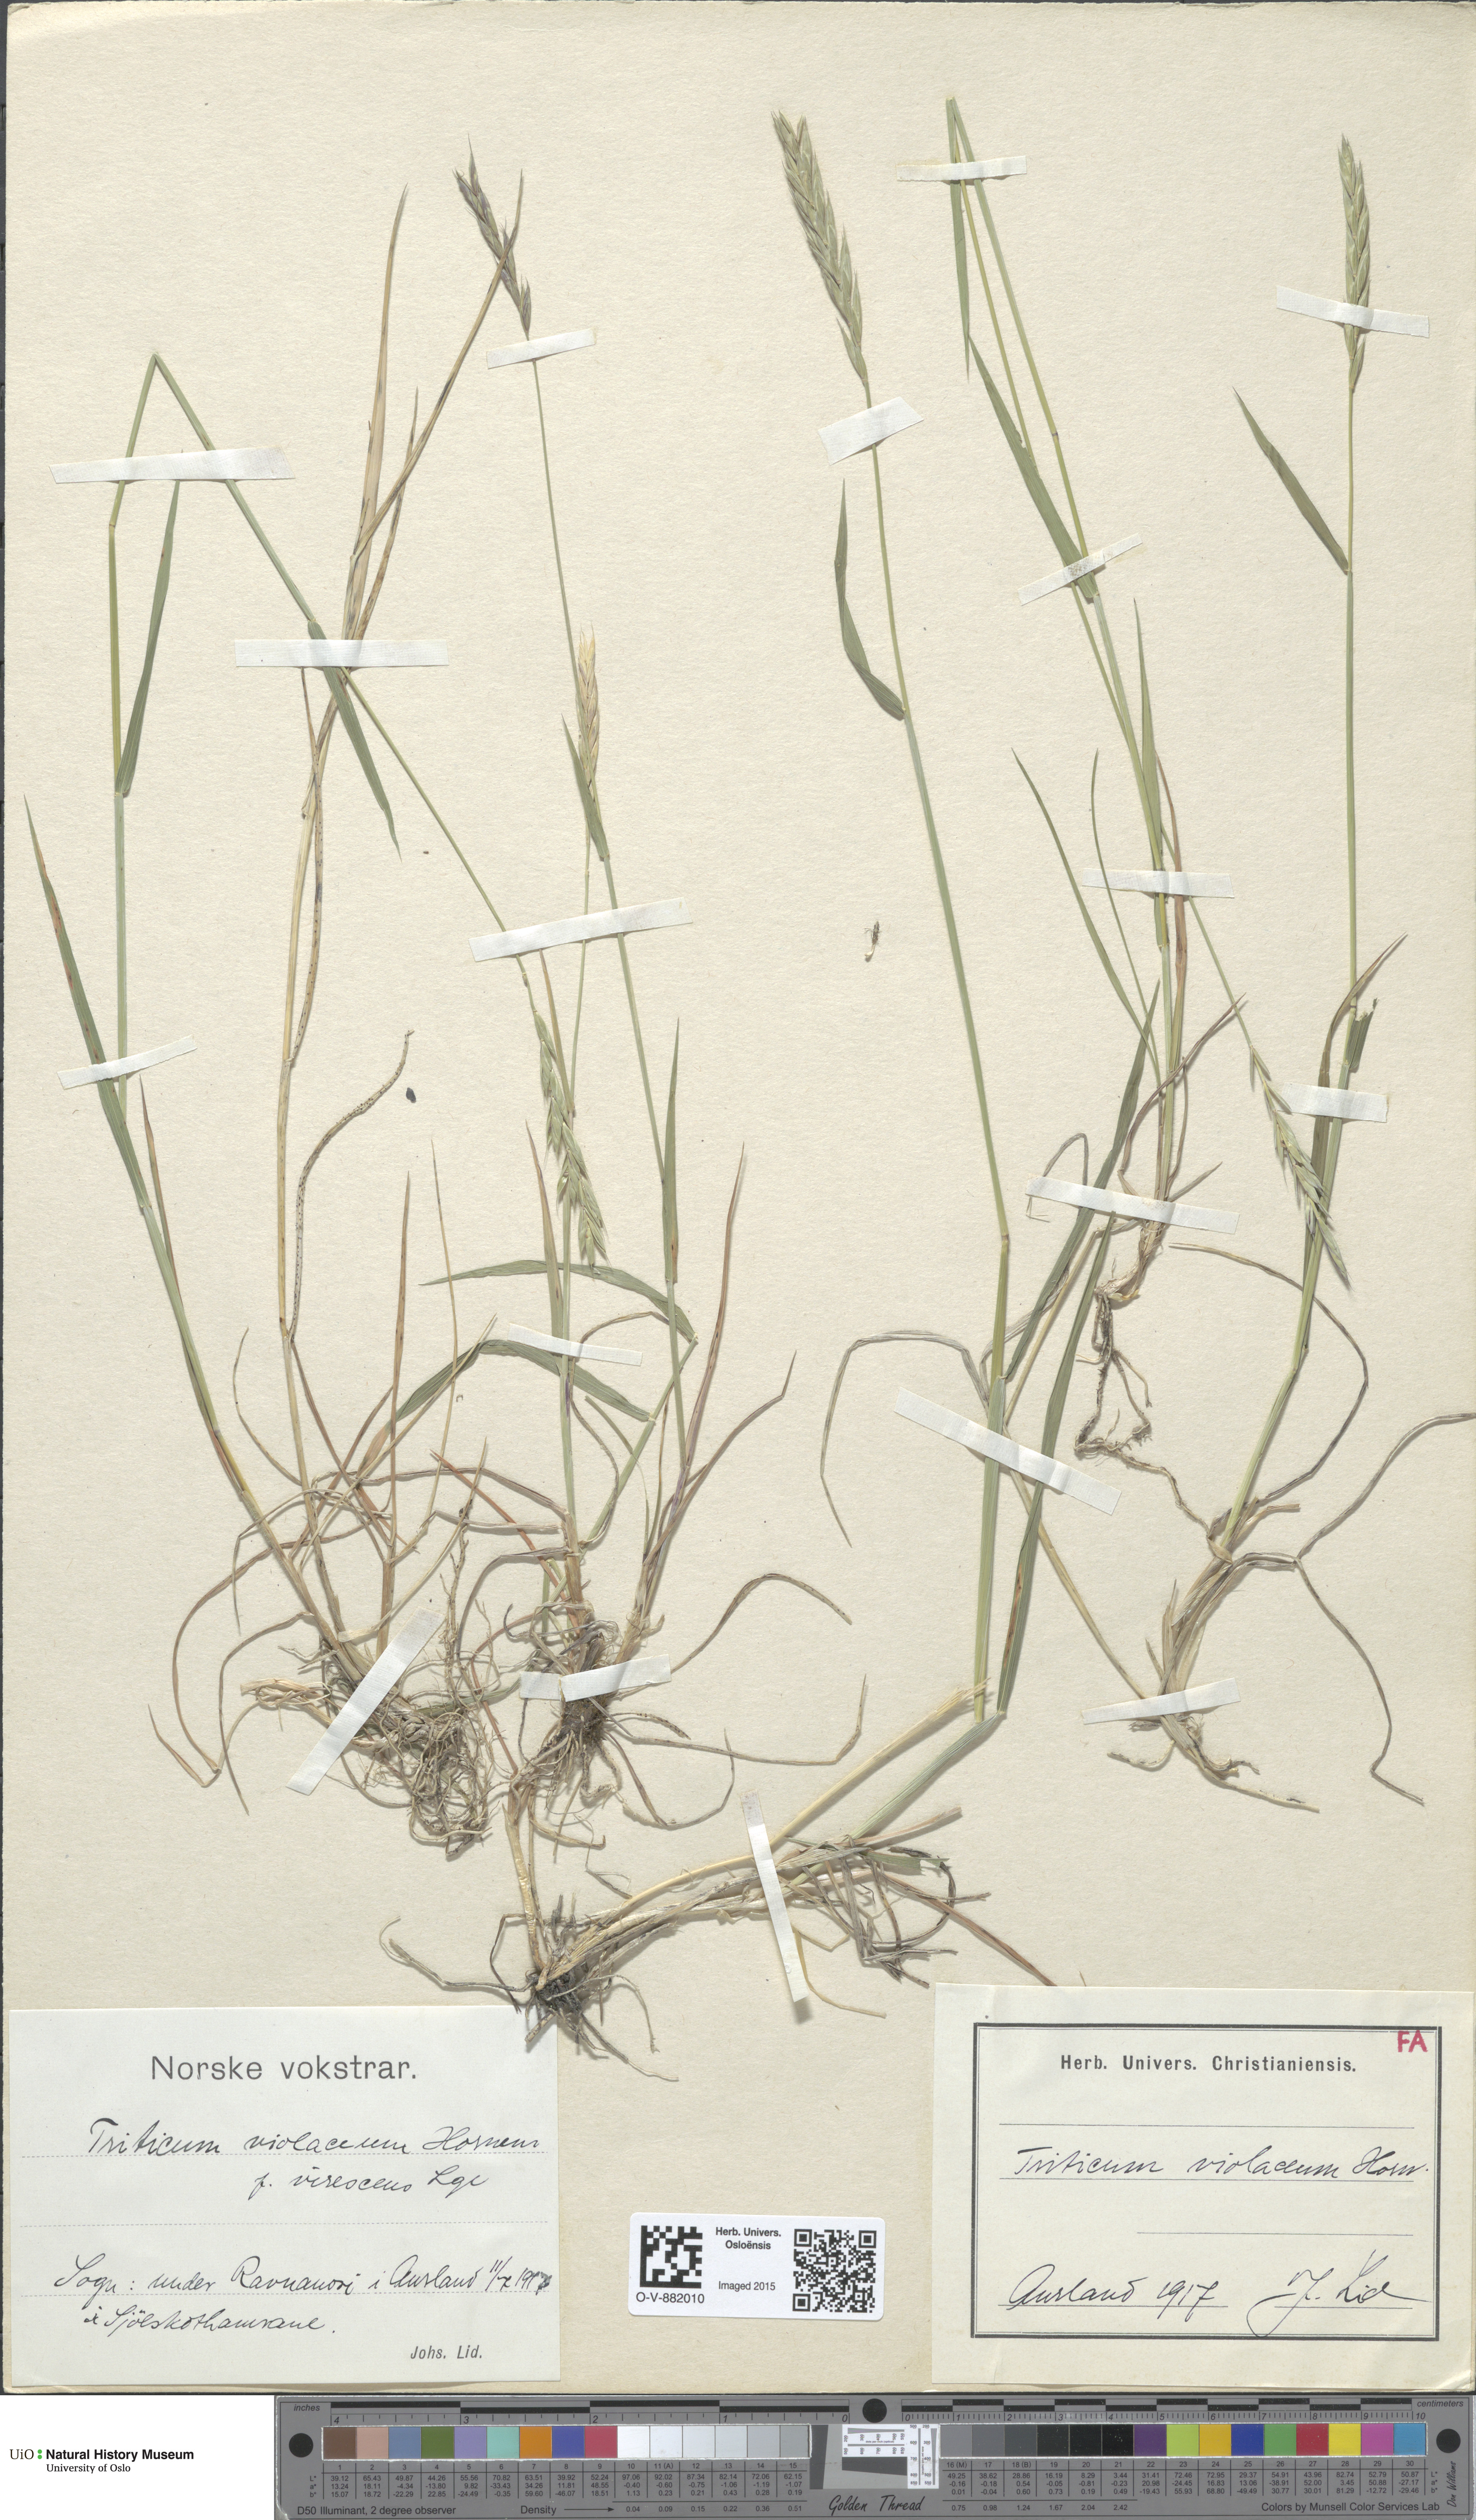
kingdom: Plantae
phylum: Tracheophyta
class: Liliopsida
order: Poales
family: Poaceae
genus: Elymus
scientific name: Elymus macrourus
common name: Northern wheatgrass
